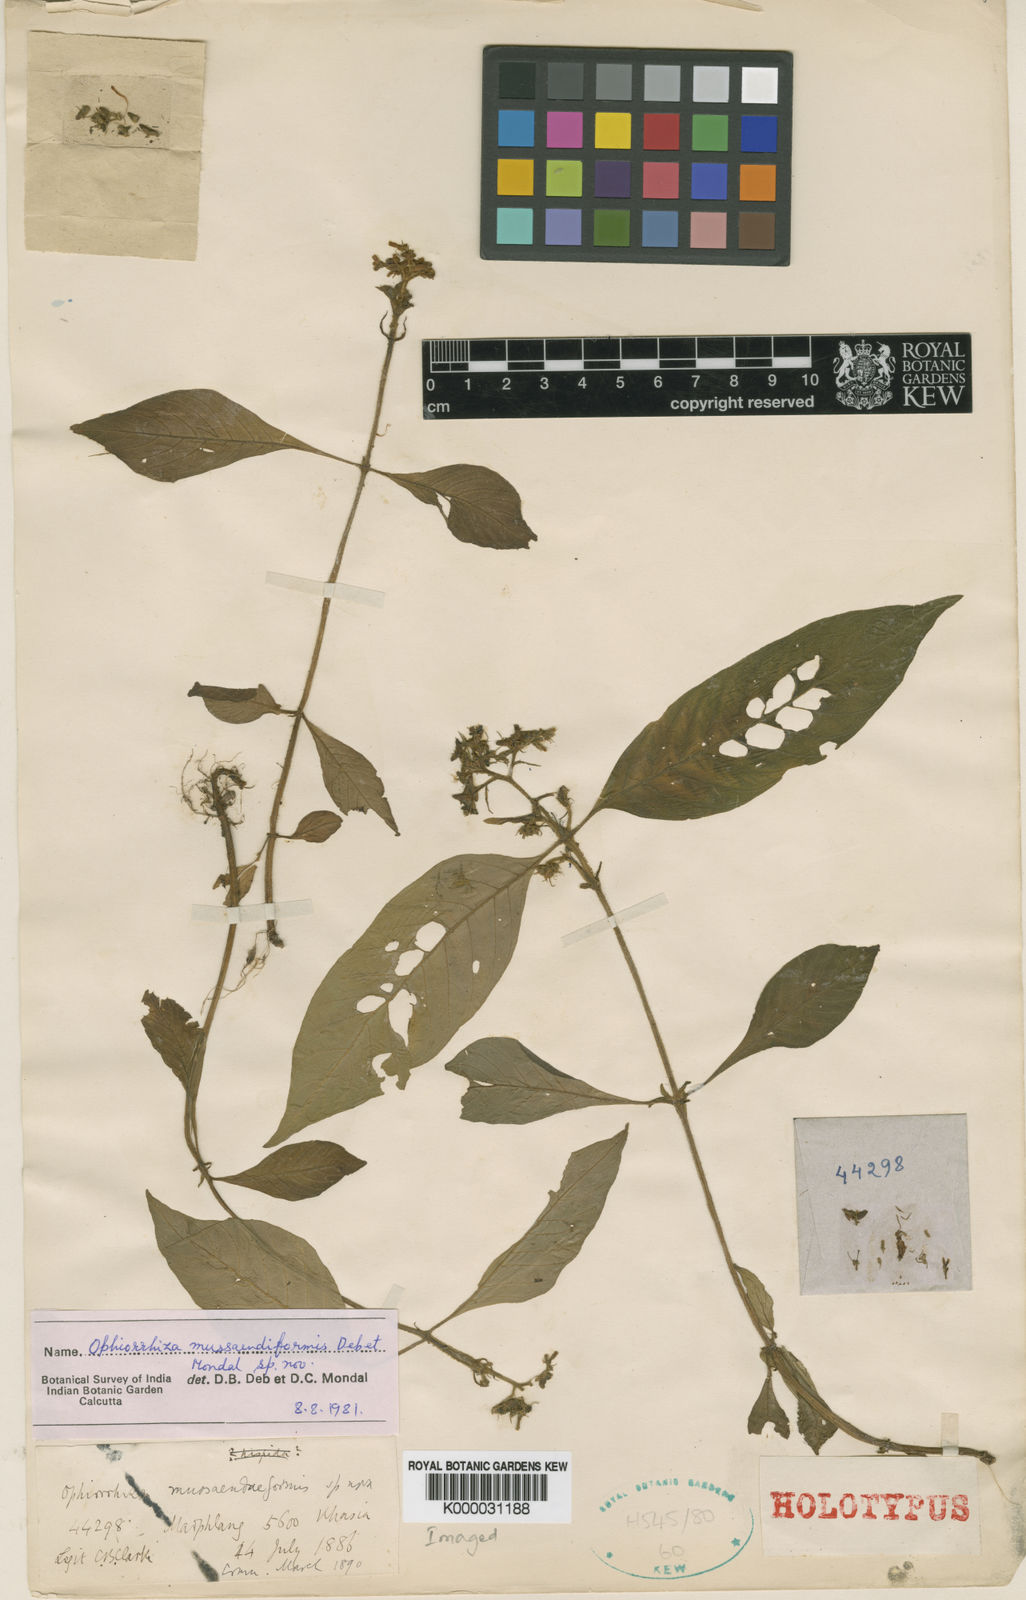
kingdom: Plantae
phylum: Tracheophyta
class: Magnoliopsida
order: Gentianales
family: Rubiaceae
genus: Ophiorrhiza
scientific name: Ophiorrhiza mussaendiformis
